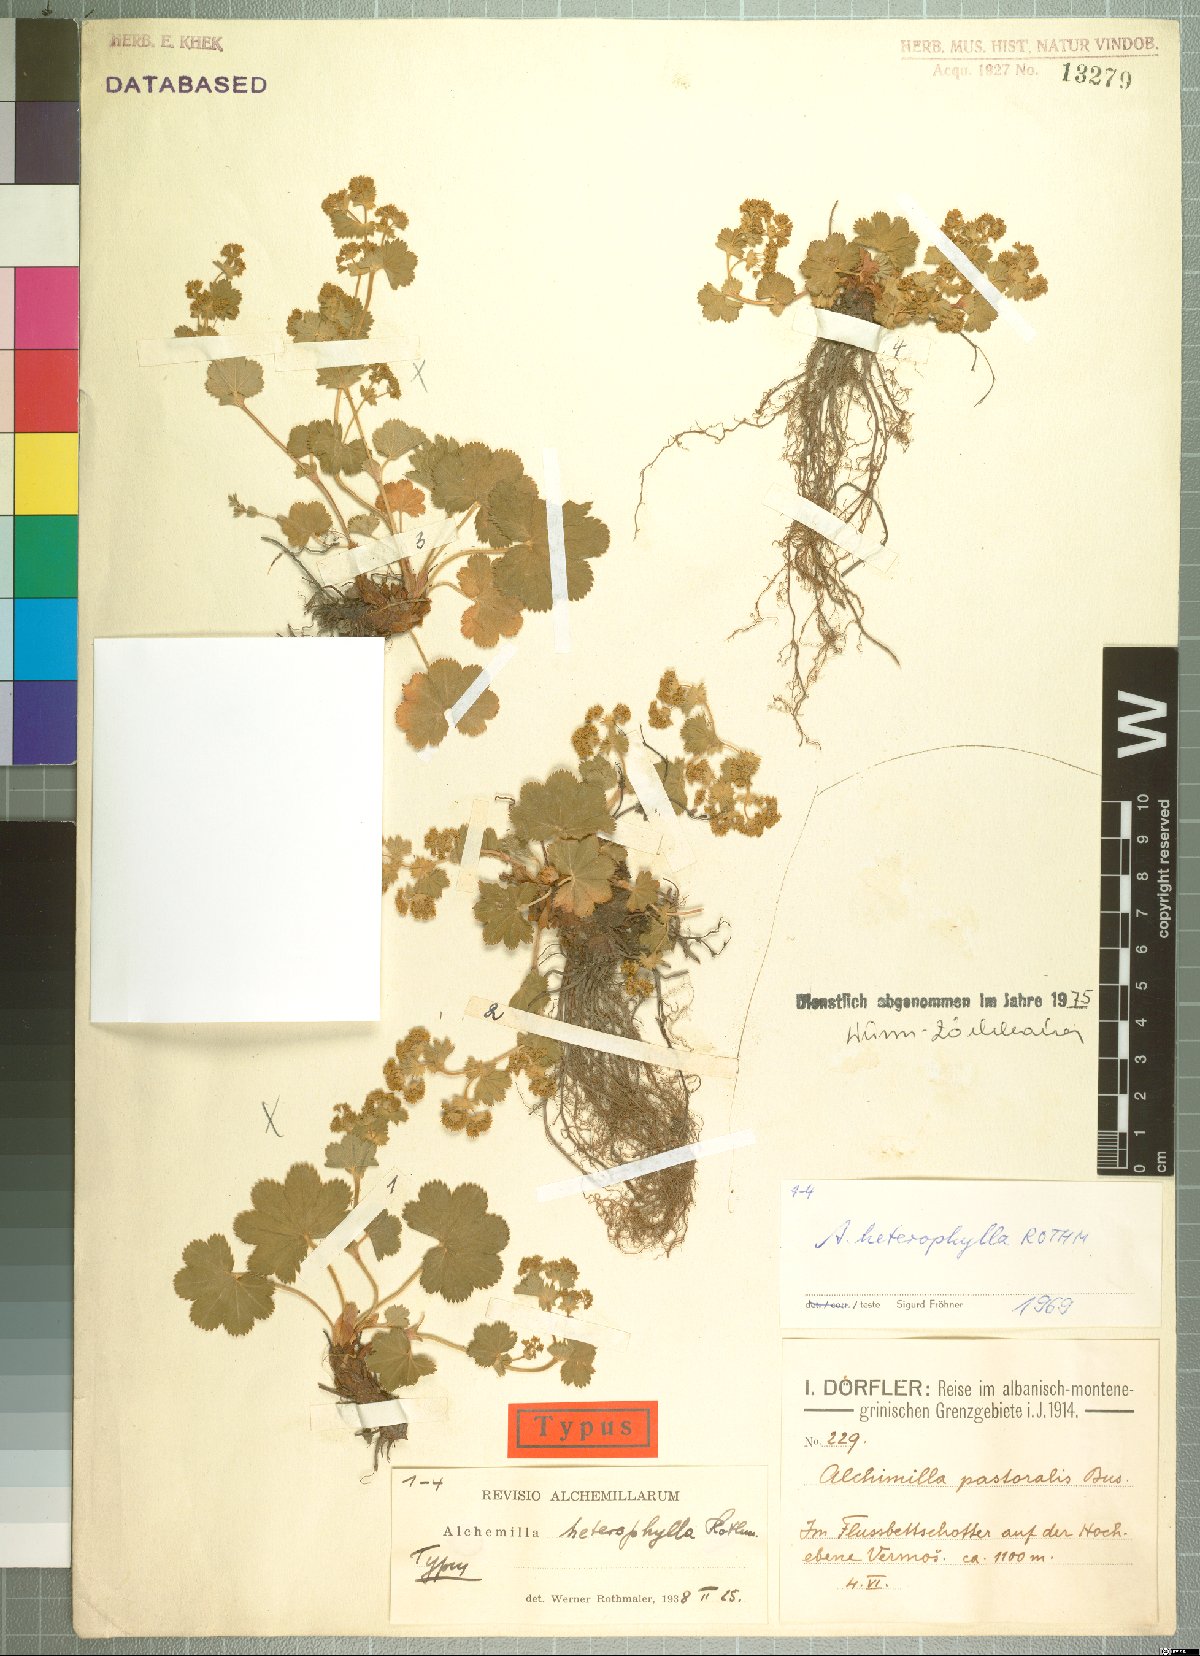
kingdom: Plantae
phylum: Tracheophyta
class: Magnoliopsida
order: Rosales
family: Rosaceae
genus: Alchemilla
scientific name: Alchemilla heterophylla
